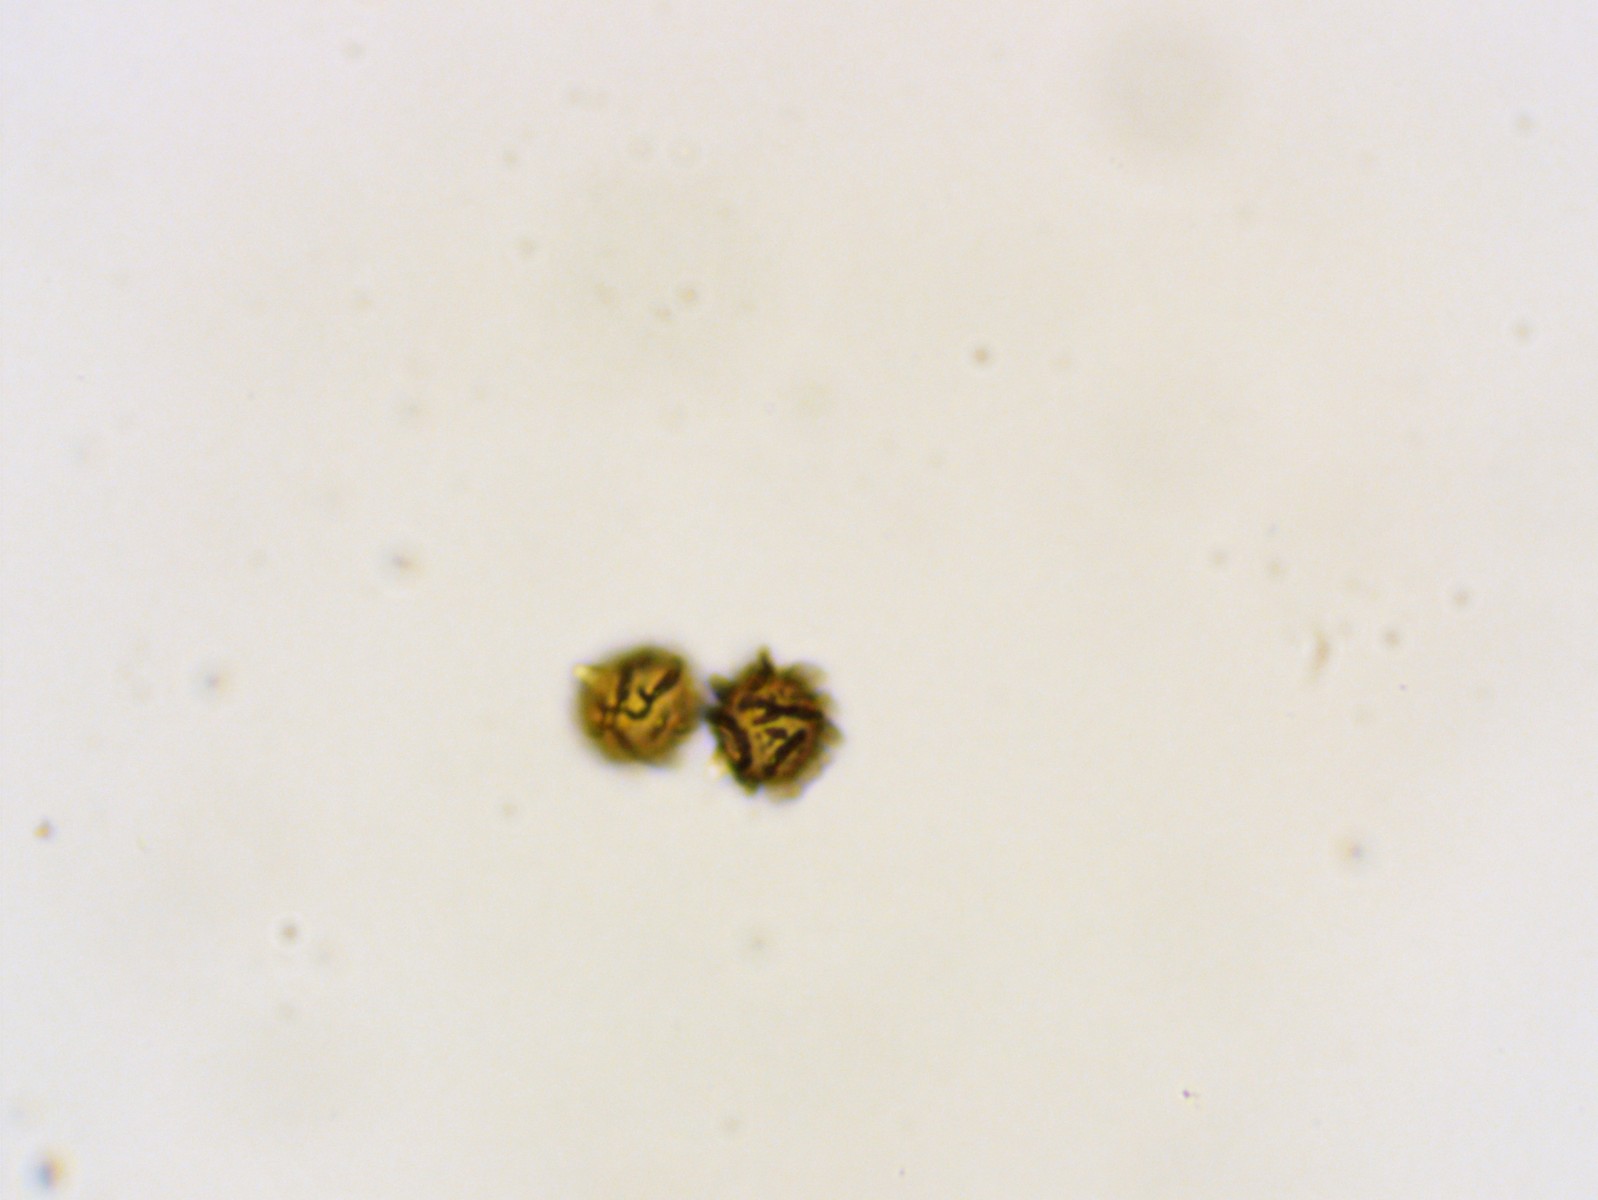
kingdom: Fungi
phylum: Basidiomycota
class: Agaricomycetes
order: Russulales
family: Russulaceae
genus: Lactarius
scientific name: Lactarius ruginosus
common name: gråbrun mælkehat
